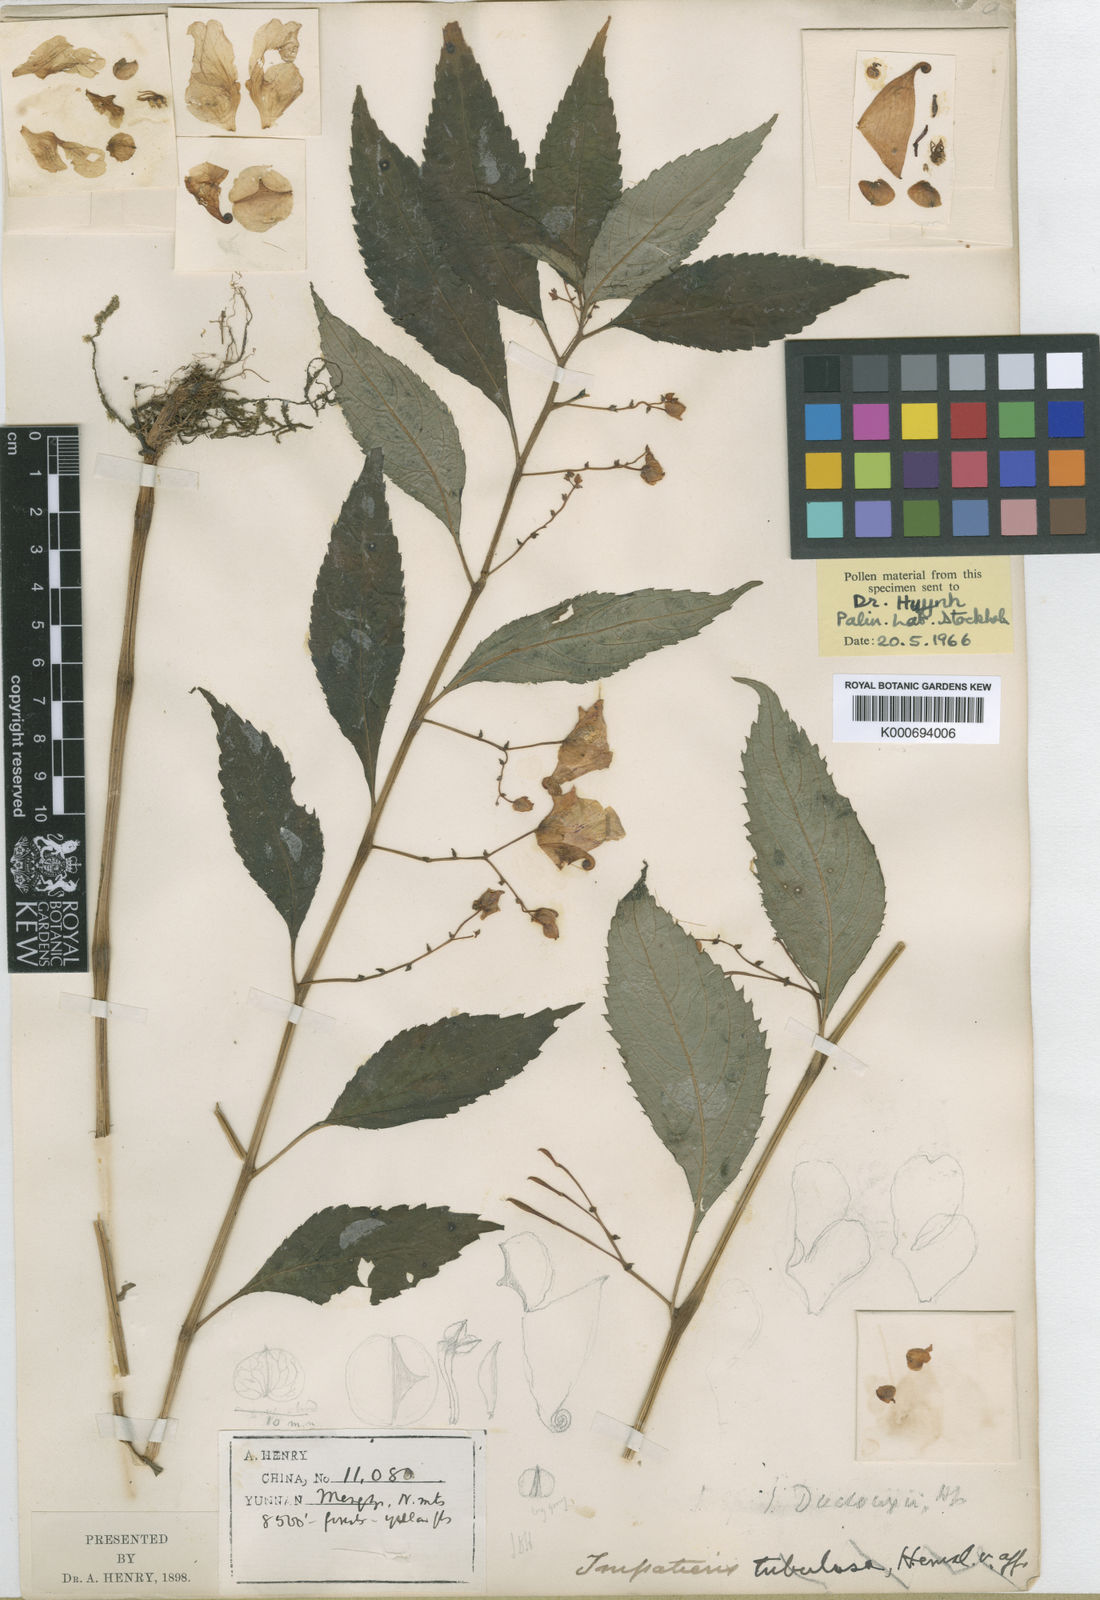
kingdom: Plantae
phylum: Tracheophyta
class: Magnoliopsida
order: Ericales
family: Balsaminaceae
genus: Impatiens
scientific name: Impatiens duclouxii
